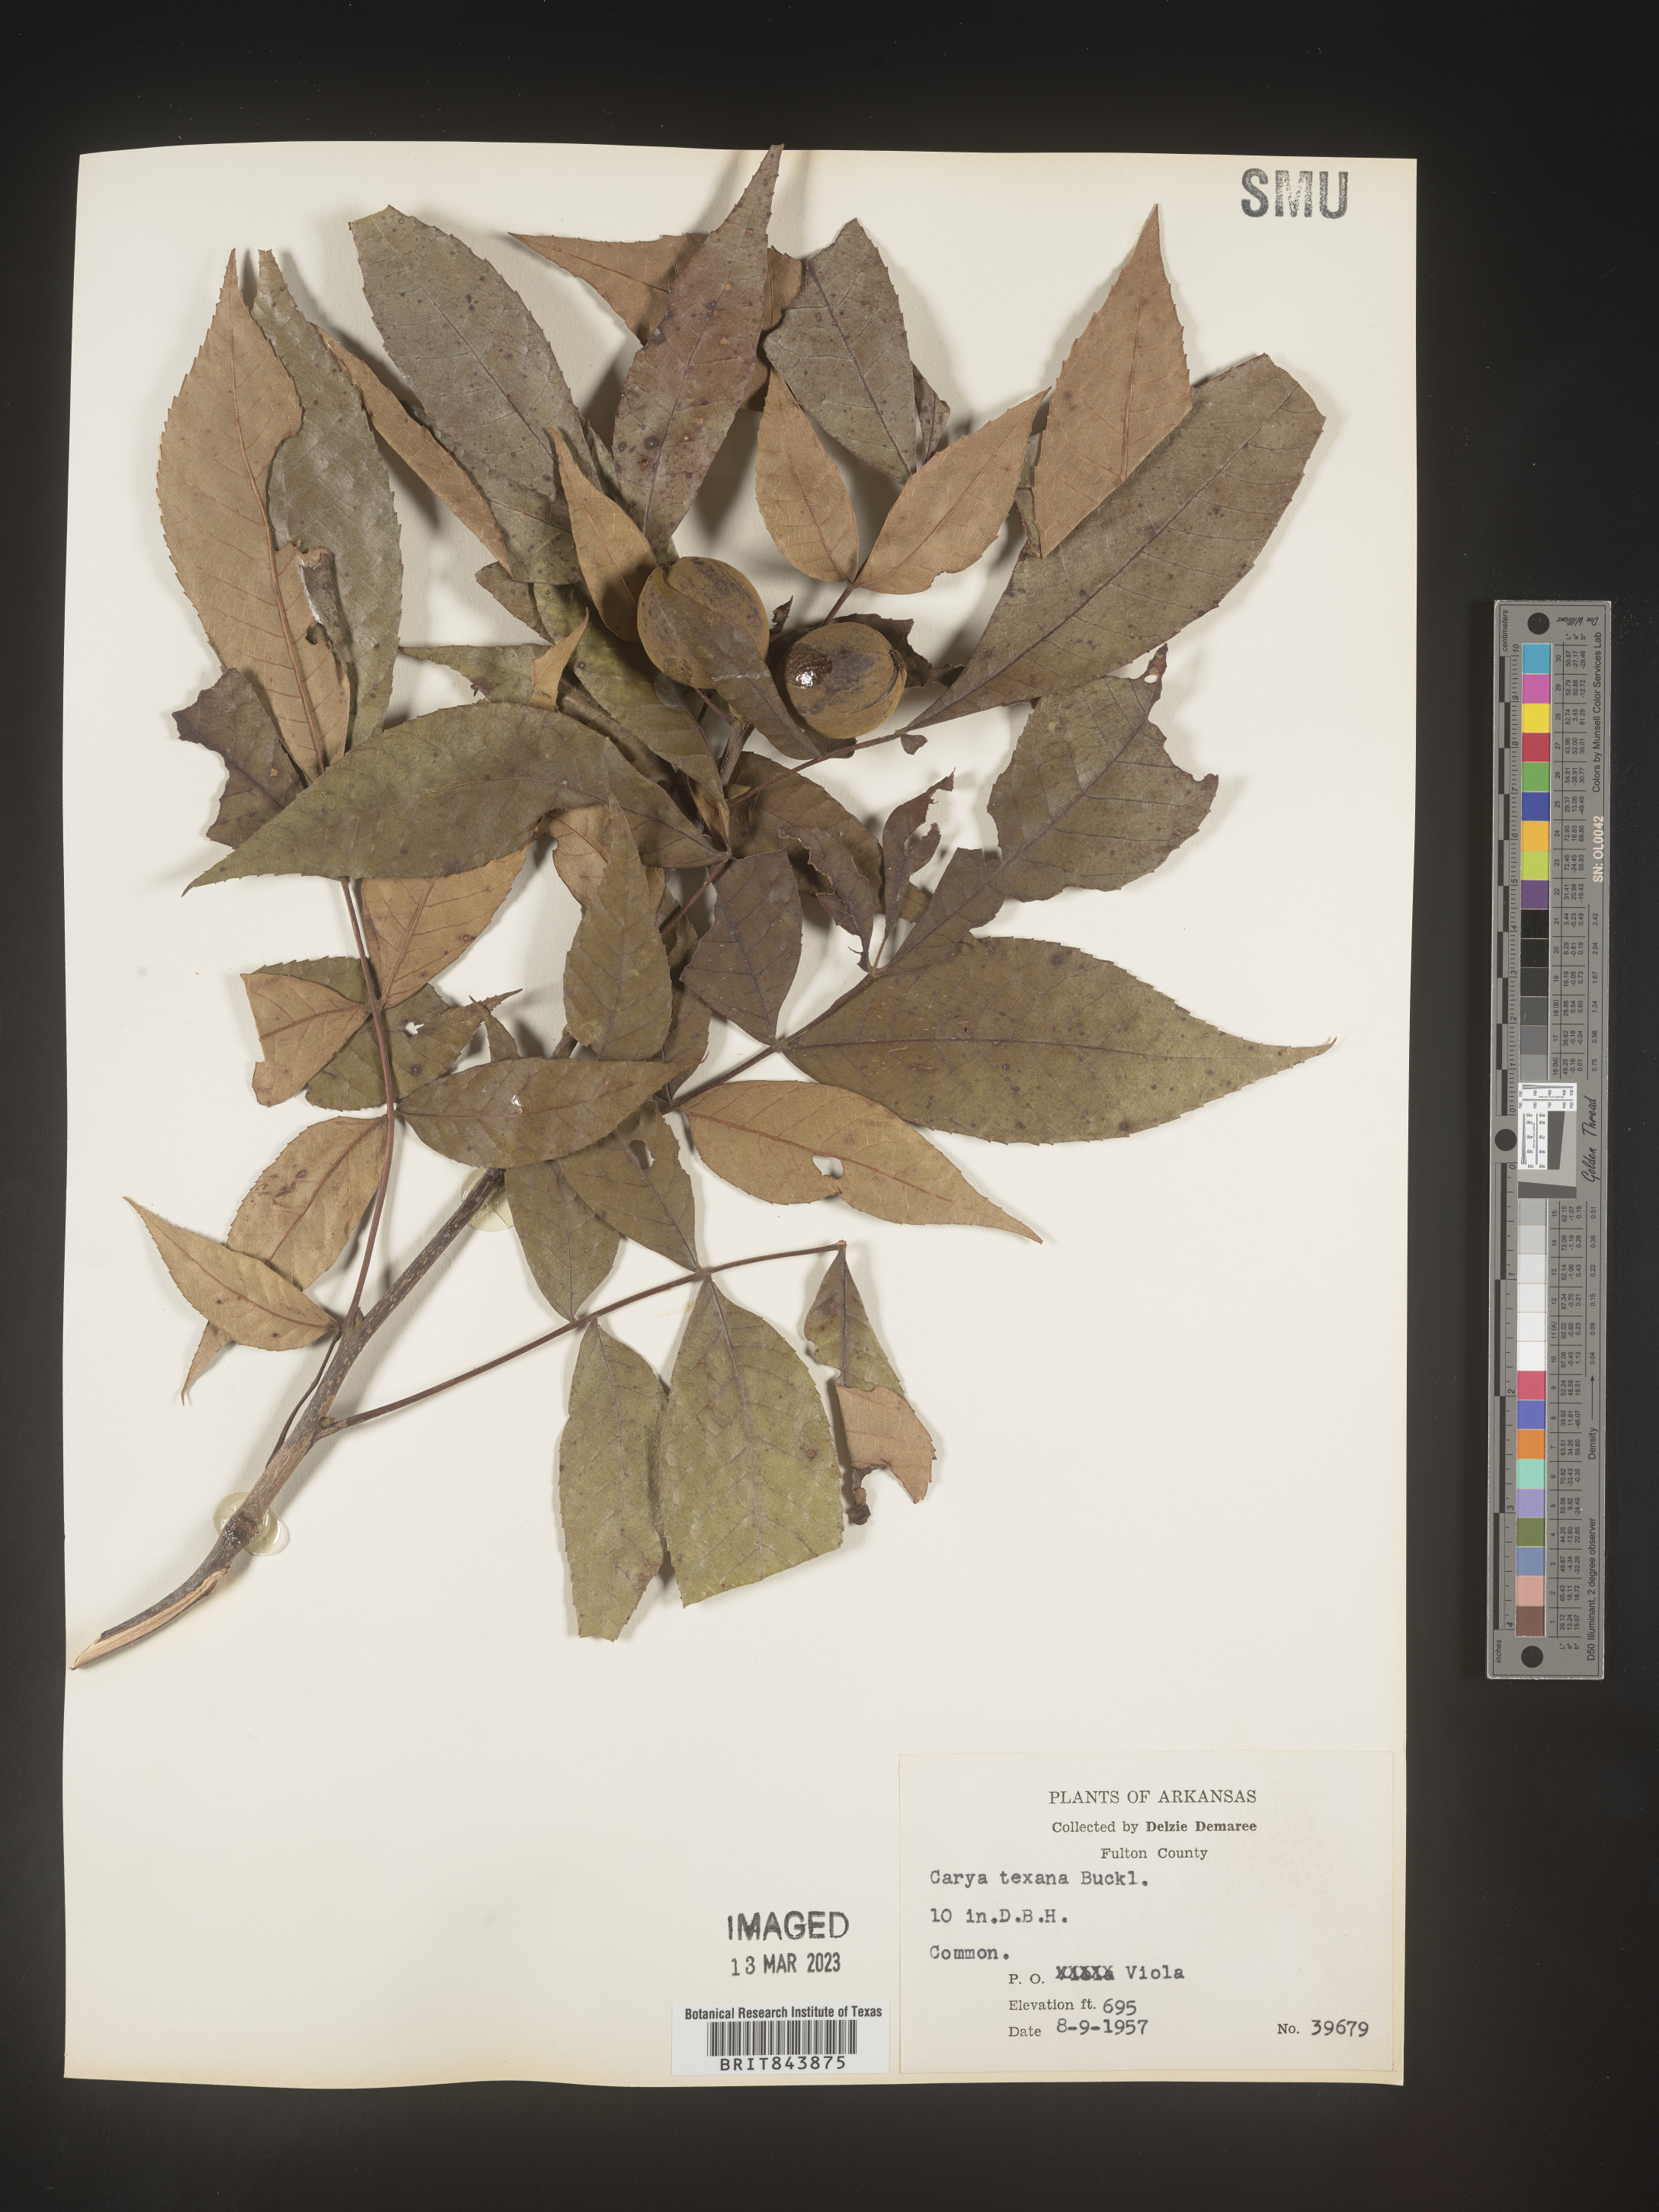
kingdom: Plantae
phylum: Tracheophyta
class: Magnoliopsida
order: Fagales
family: Juglandaceae
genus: Carya
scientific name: Carya texana
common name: Black hickory
